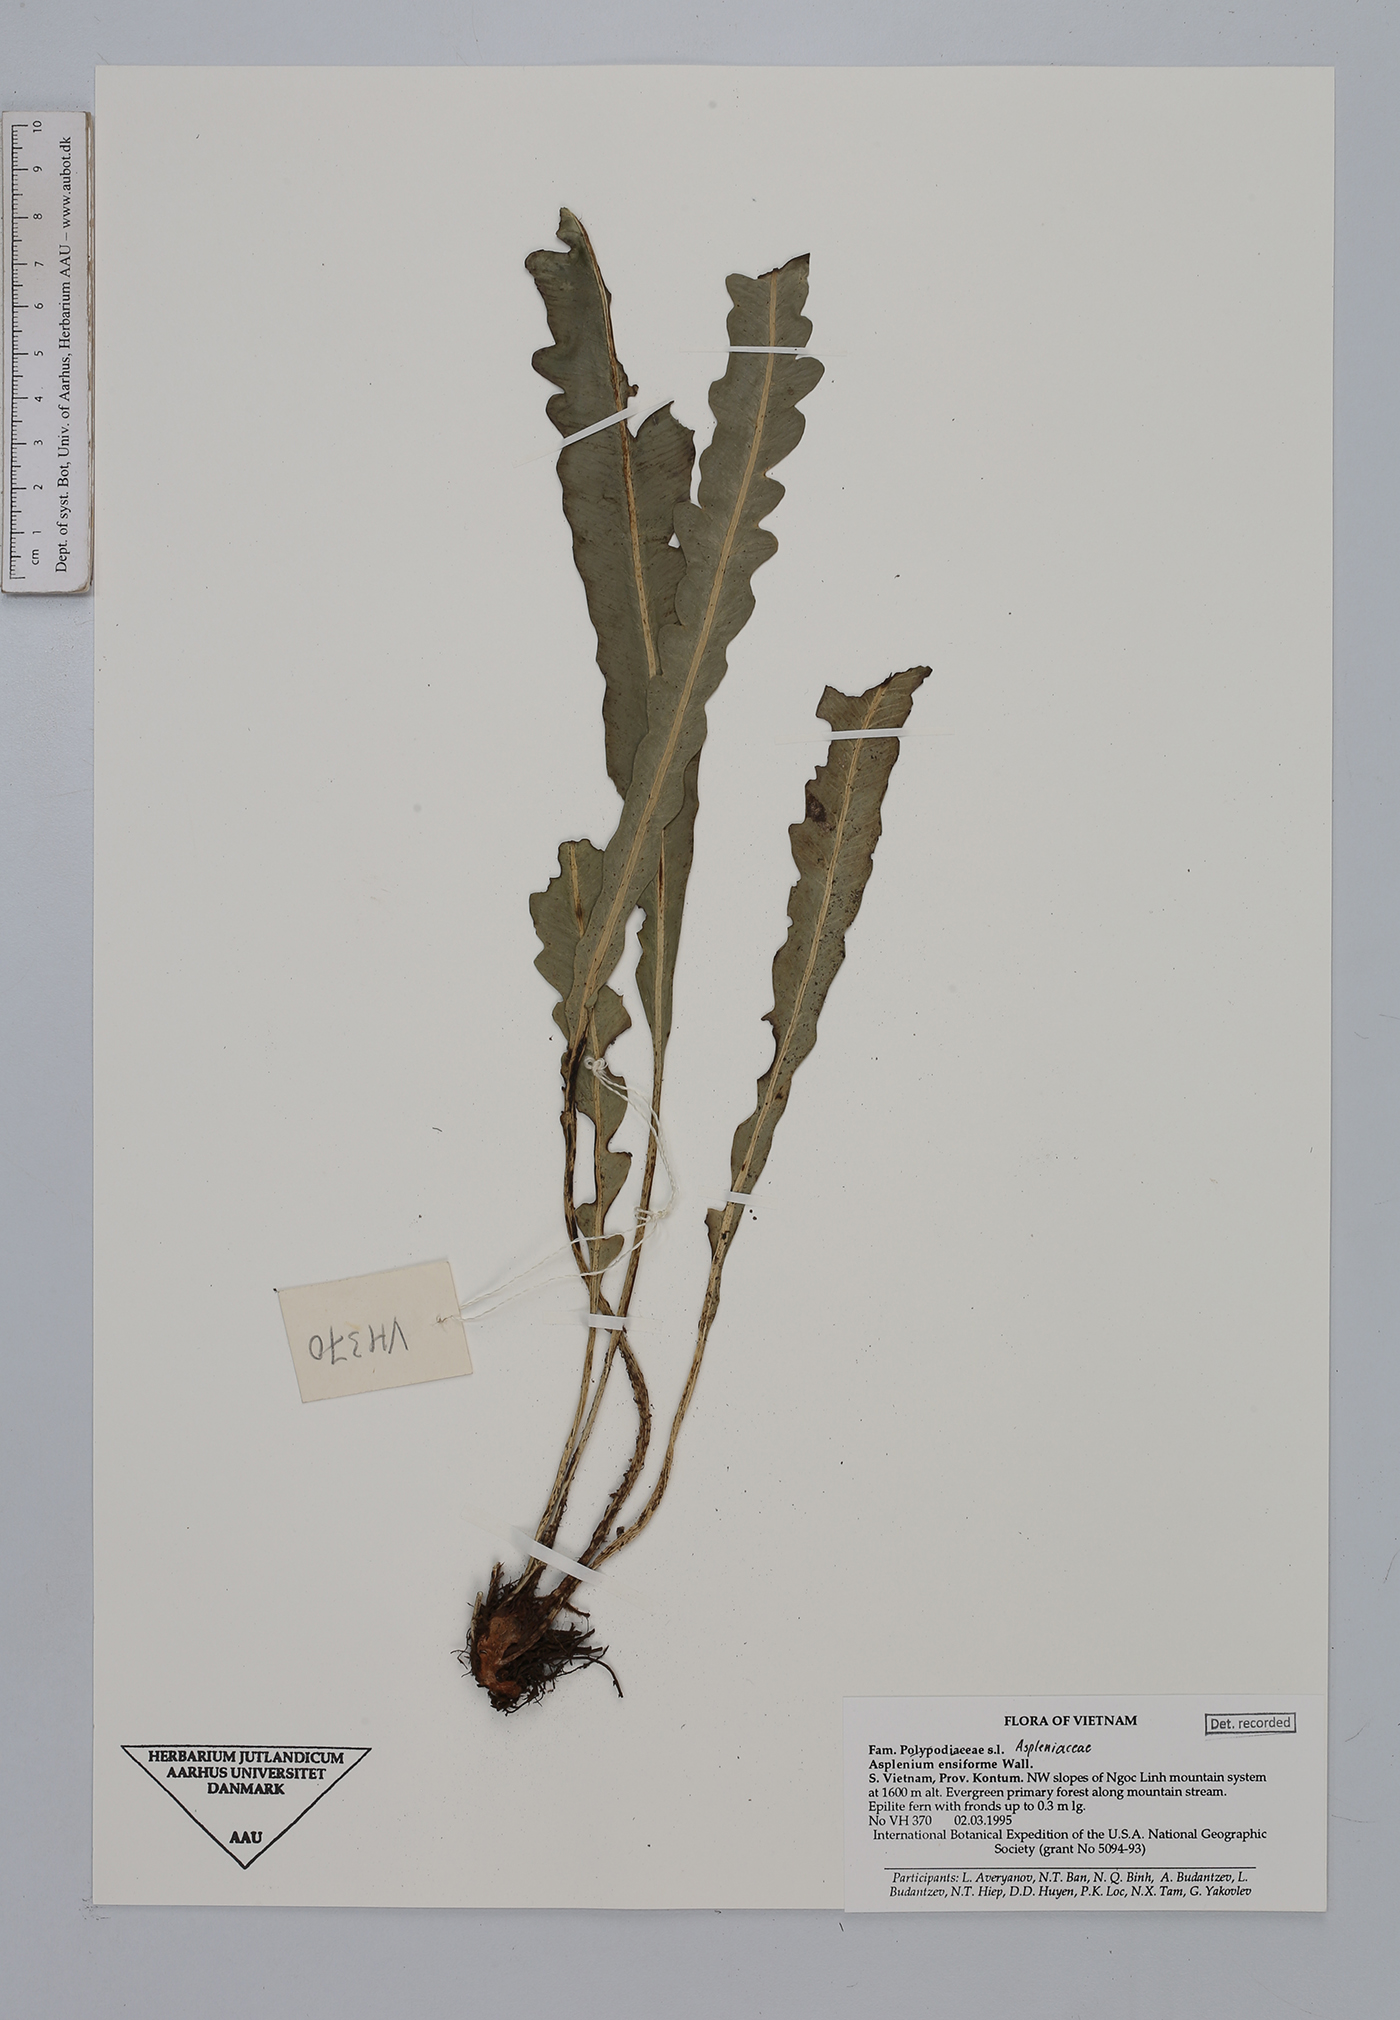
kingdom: Plantae
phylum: Tracheophyta
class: Polypodiopsida
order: Polypodiales
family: Aspleniaceae
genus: Asplenium
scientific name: Asplenium ensiforme
